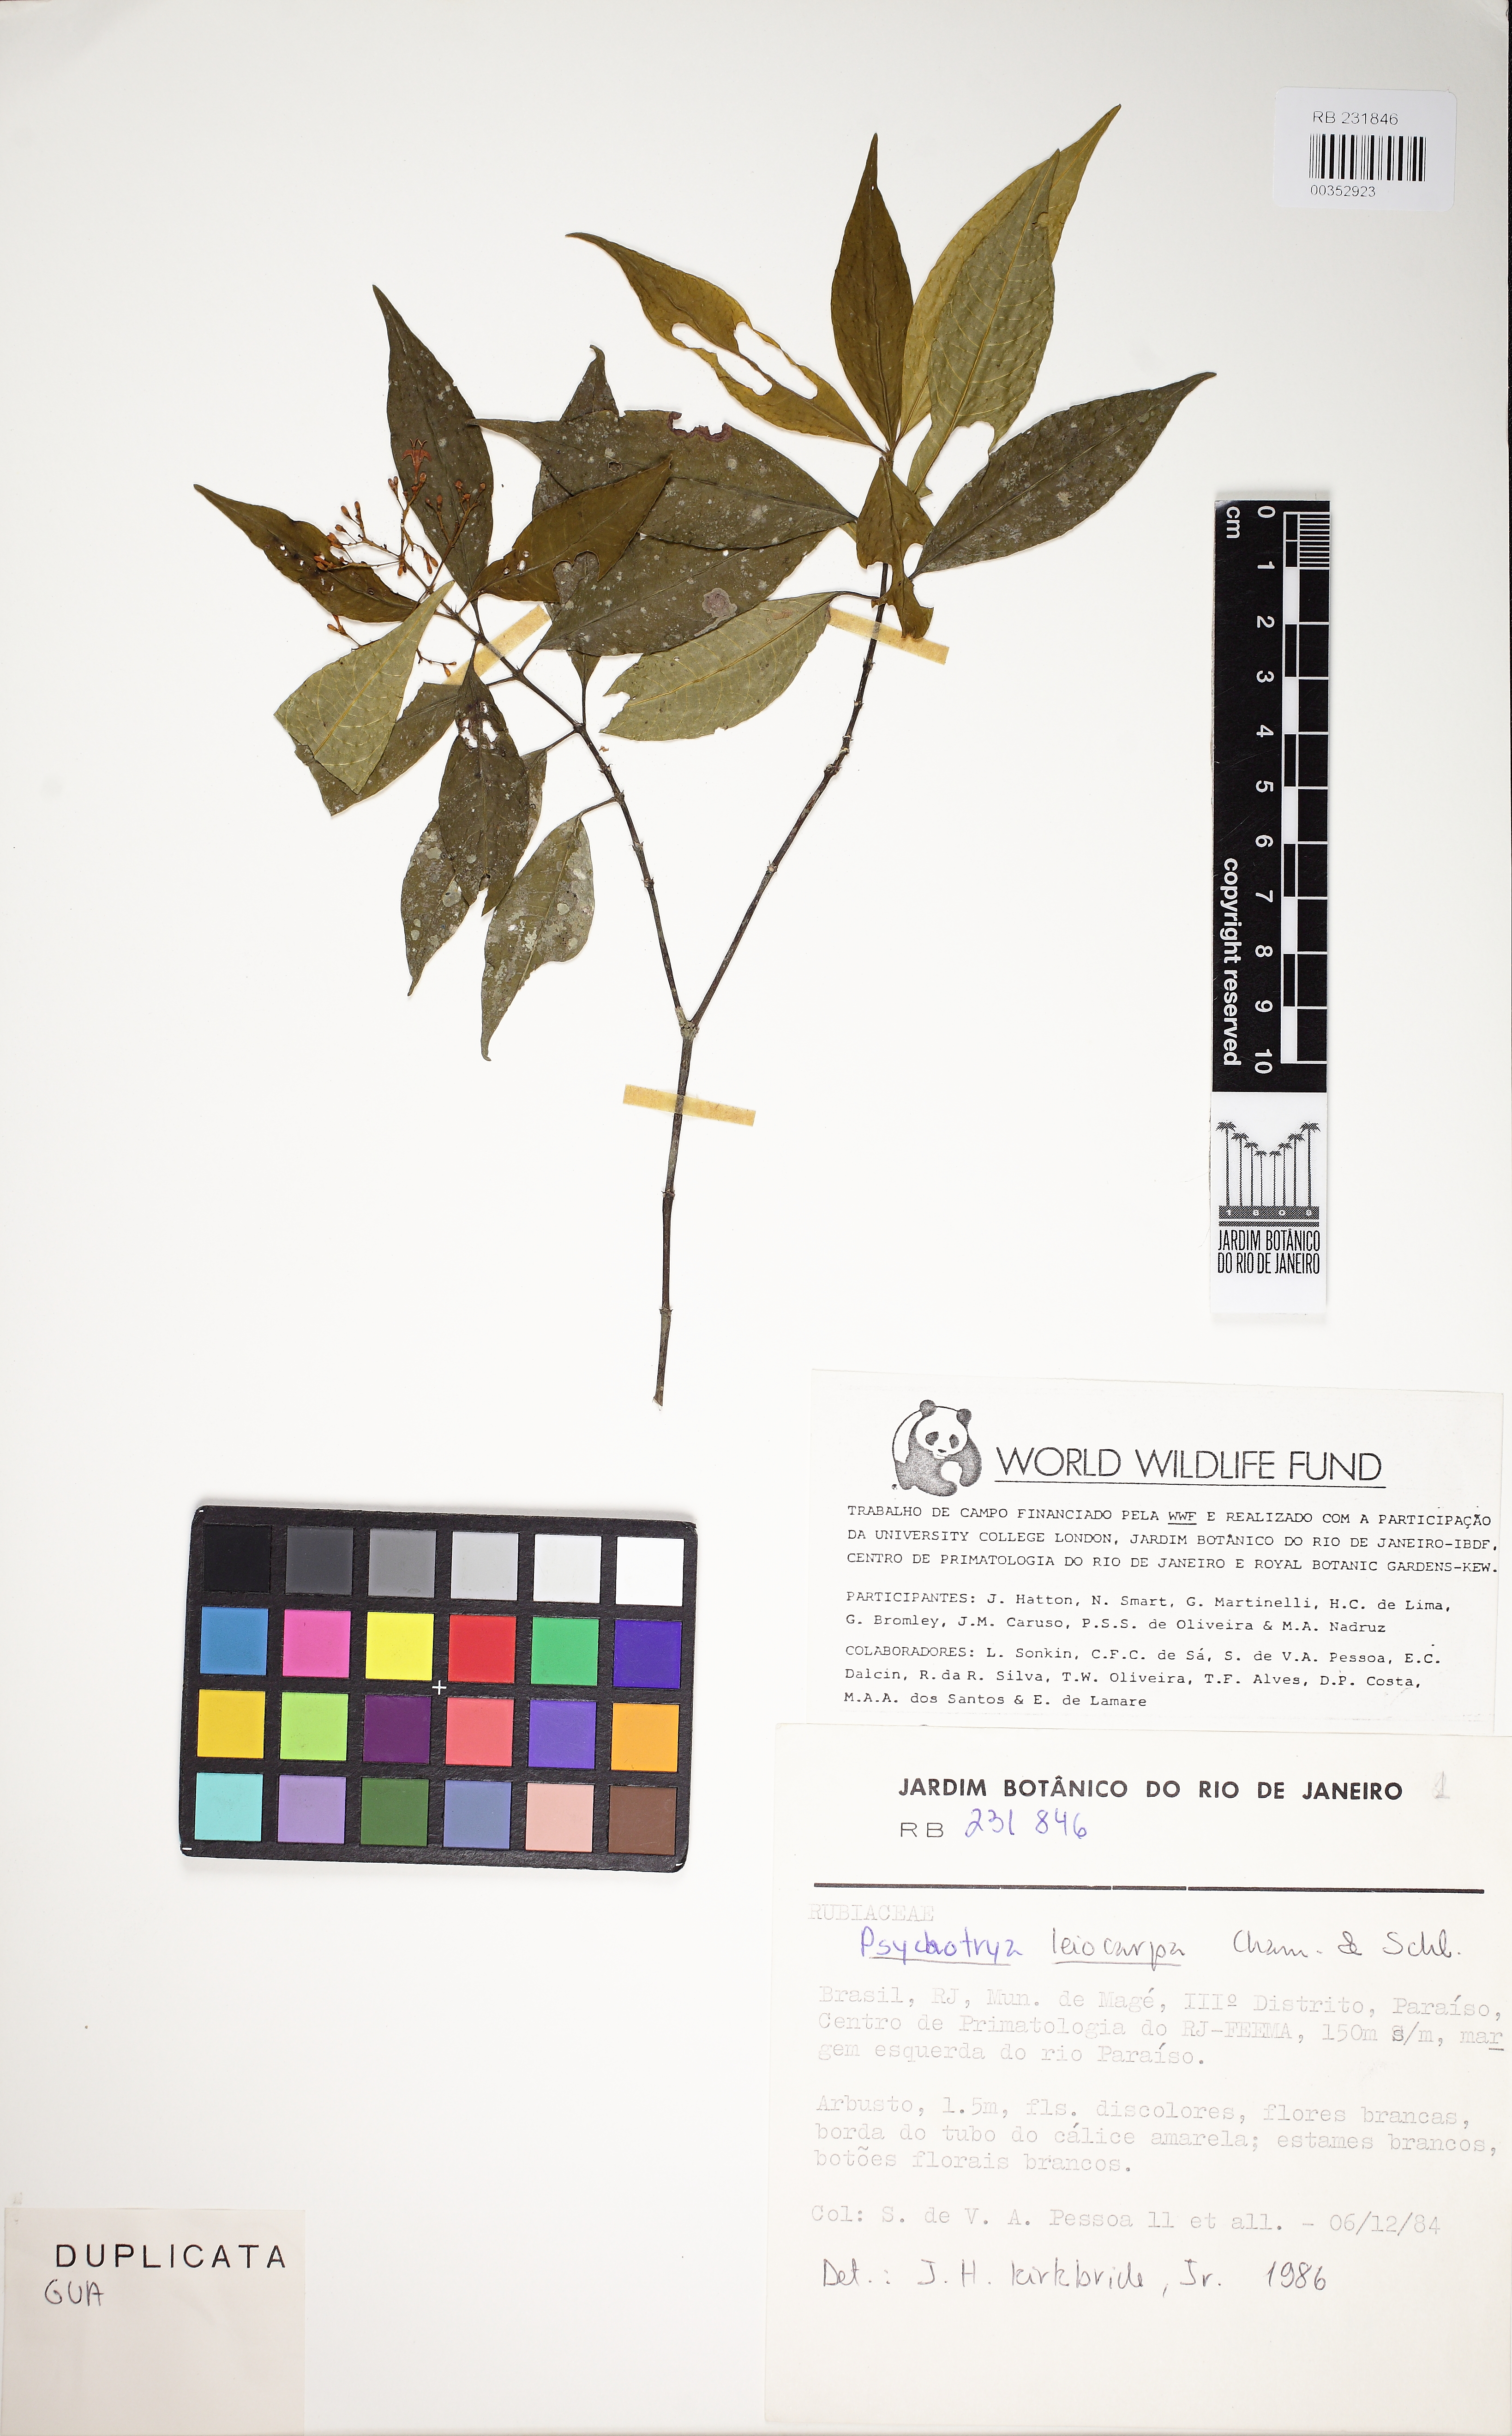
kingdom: Plantae
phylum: Tracheophyta
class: Magnoliopsida
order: Gentianales
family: Rubiaceae
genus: Psychotria
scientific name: Psychotria leiocarpa
